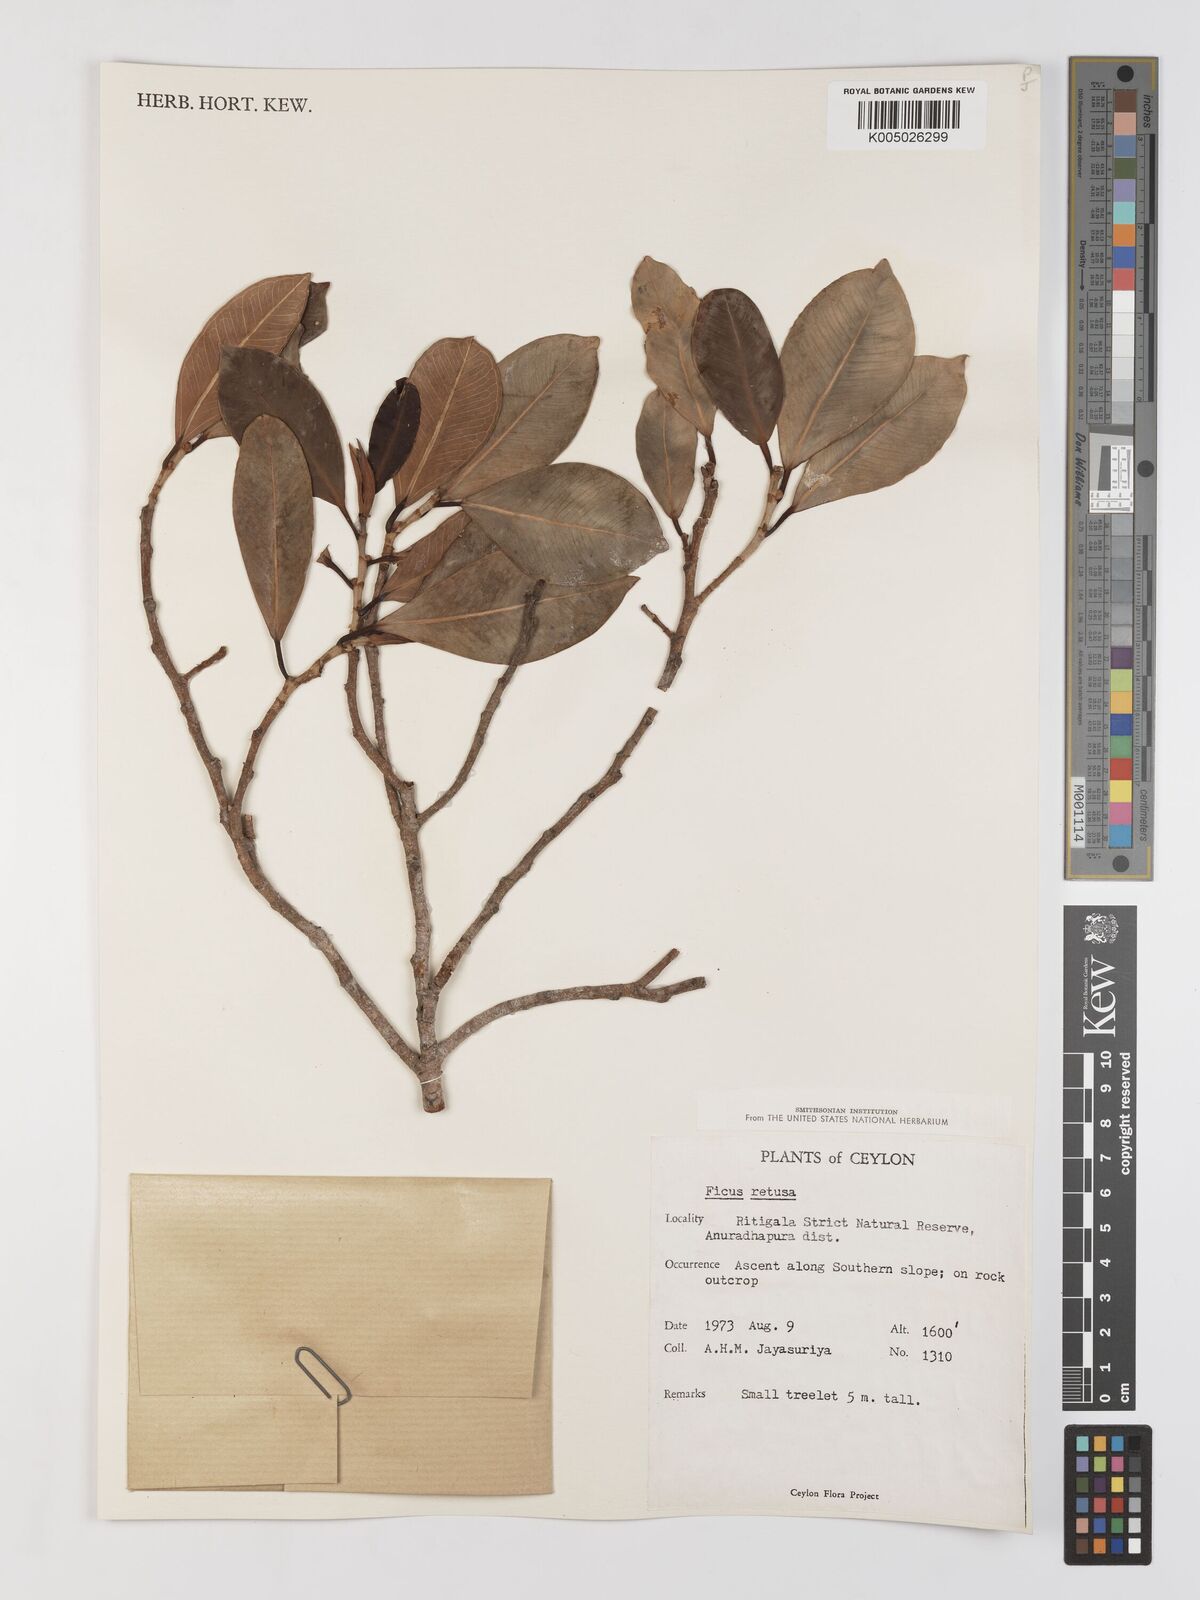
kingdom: Plantae
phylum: Tracheophyta
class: Magnoliopsida
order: Rosales
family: Moraceae
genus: Ficus
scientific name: Ficus
